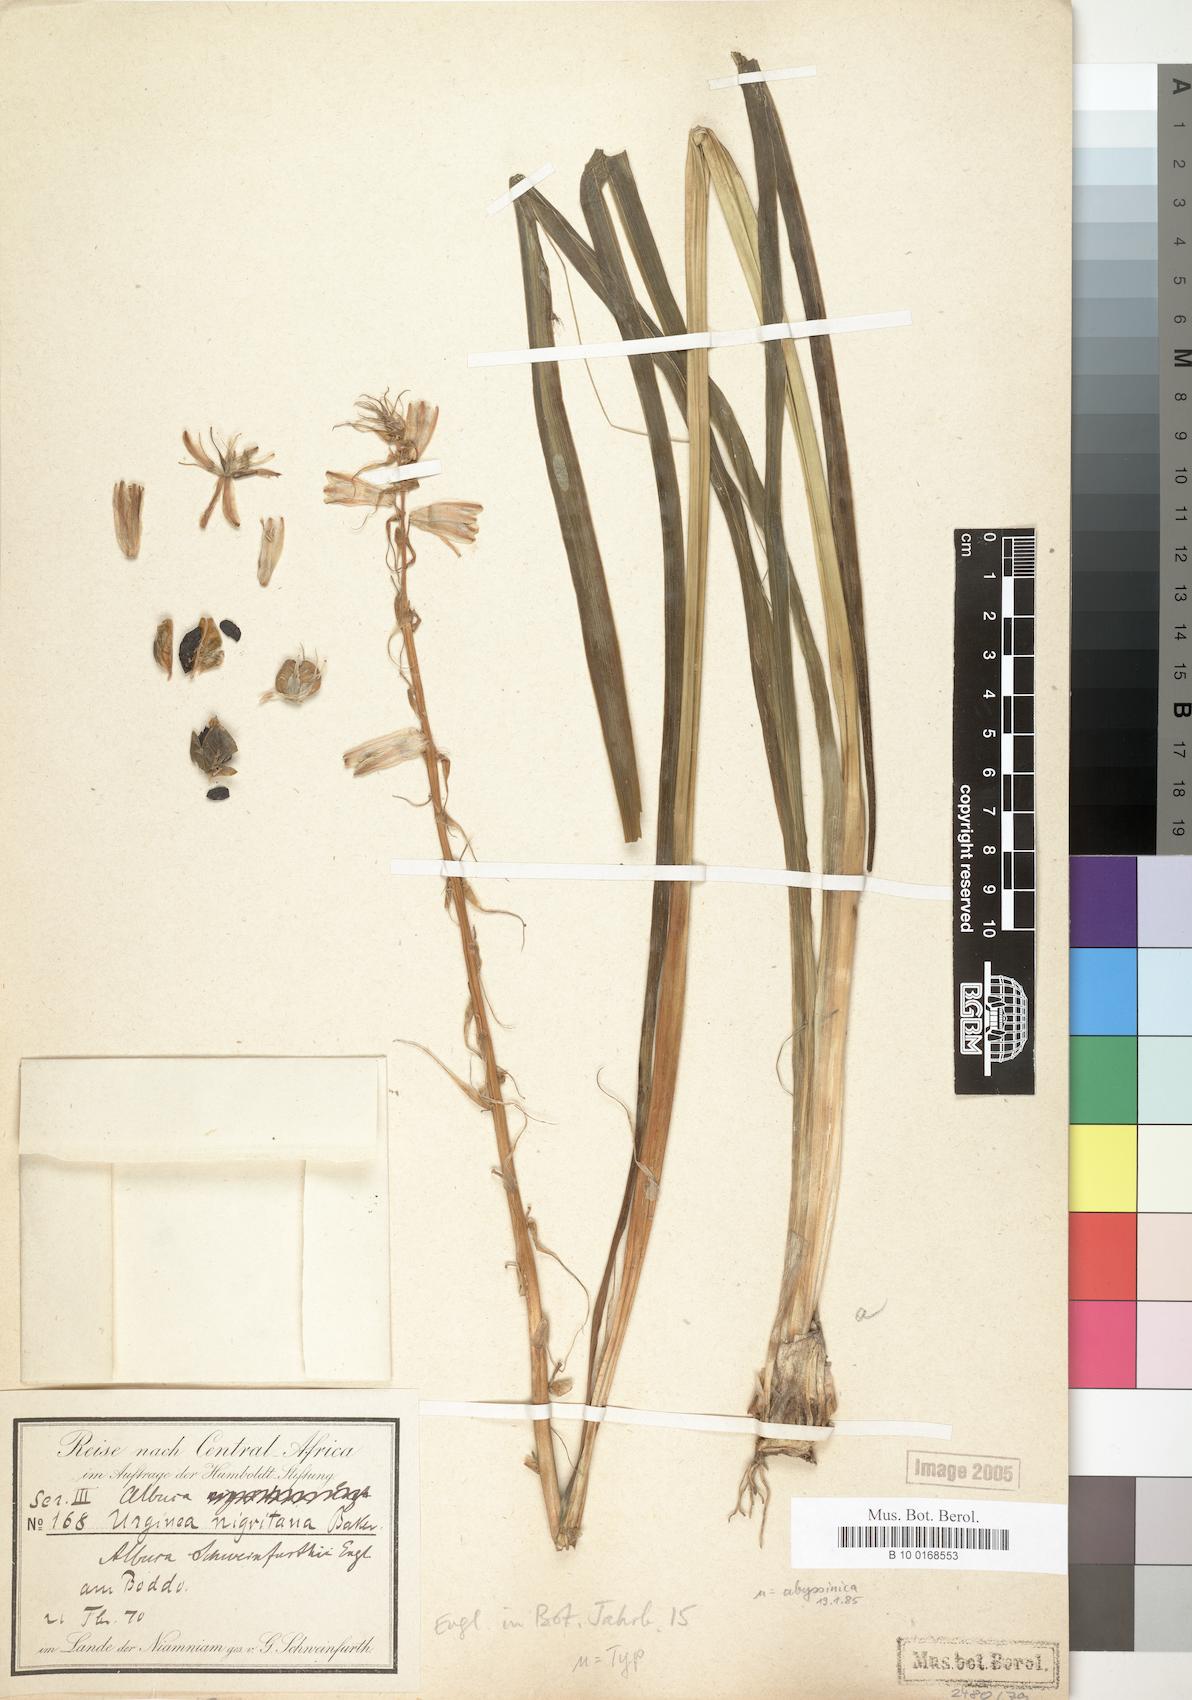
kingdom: Plantae
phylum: Tracheophyta
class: Liliopsida
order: Asparagales
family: Asparagaceae
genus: Albuca
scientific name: Albuca nigritana
